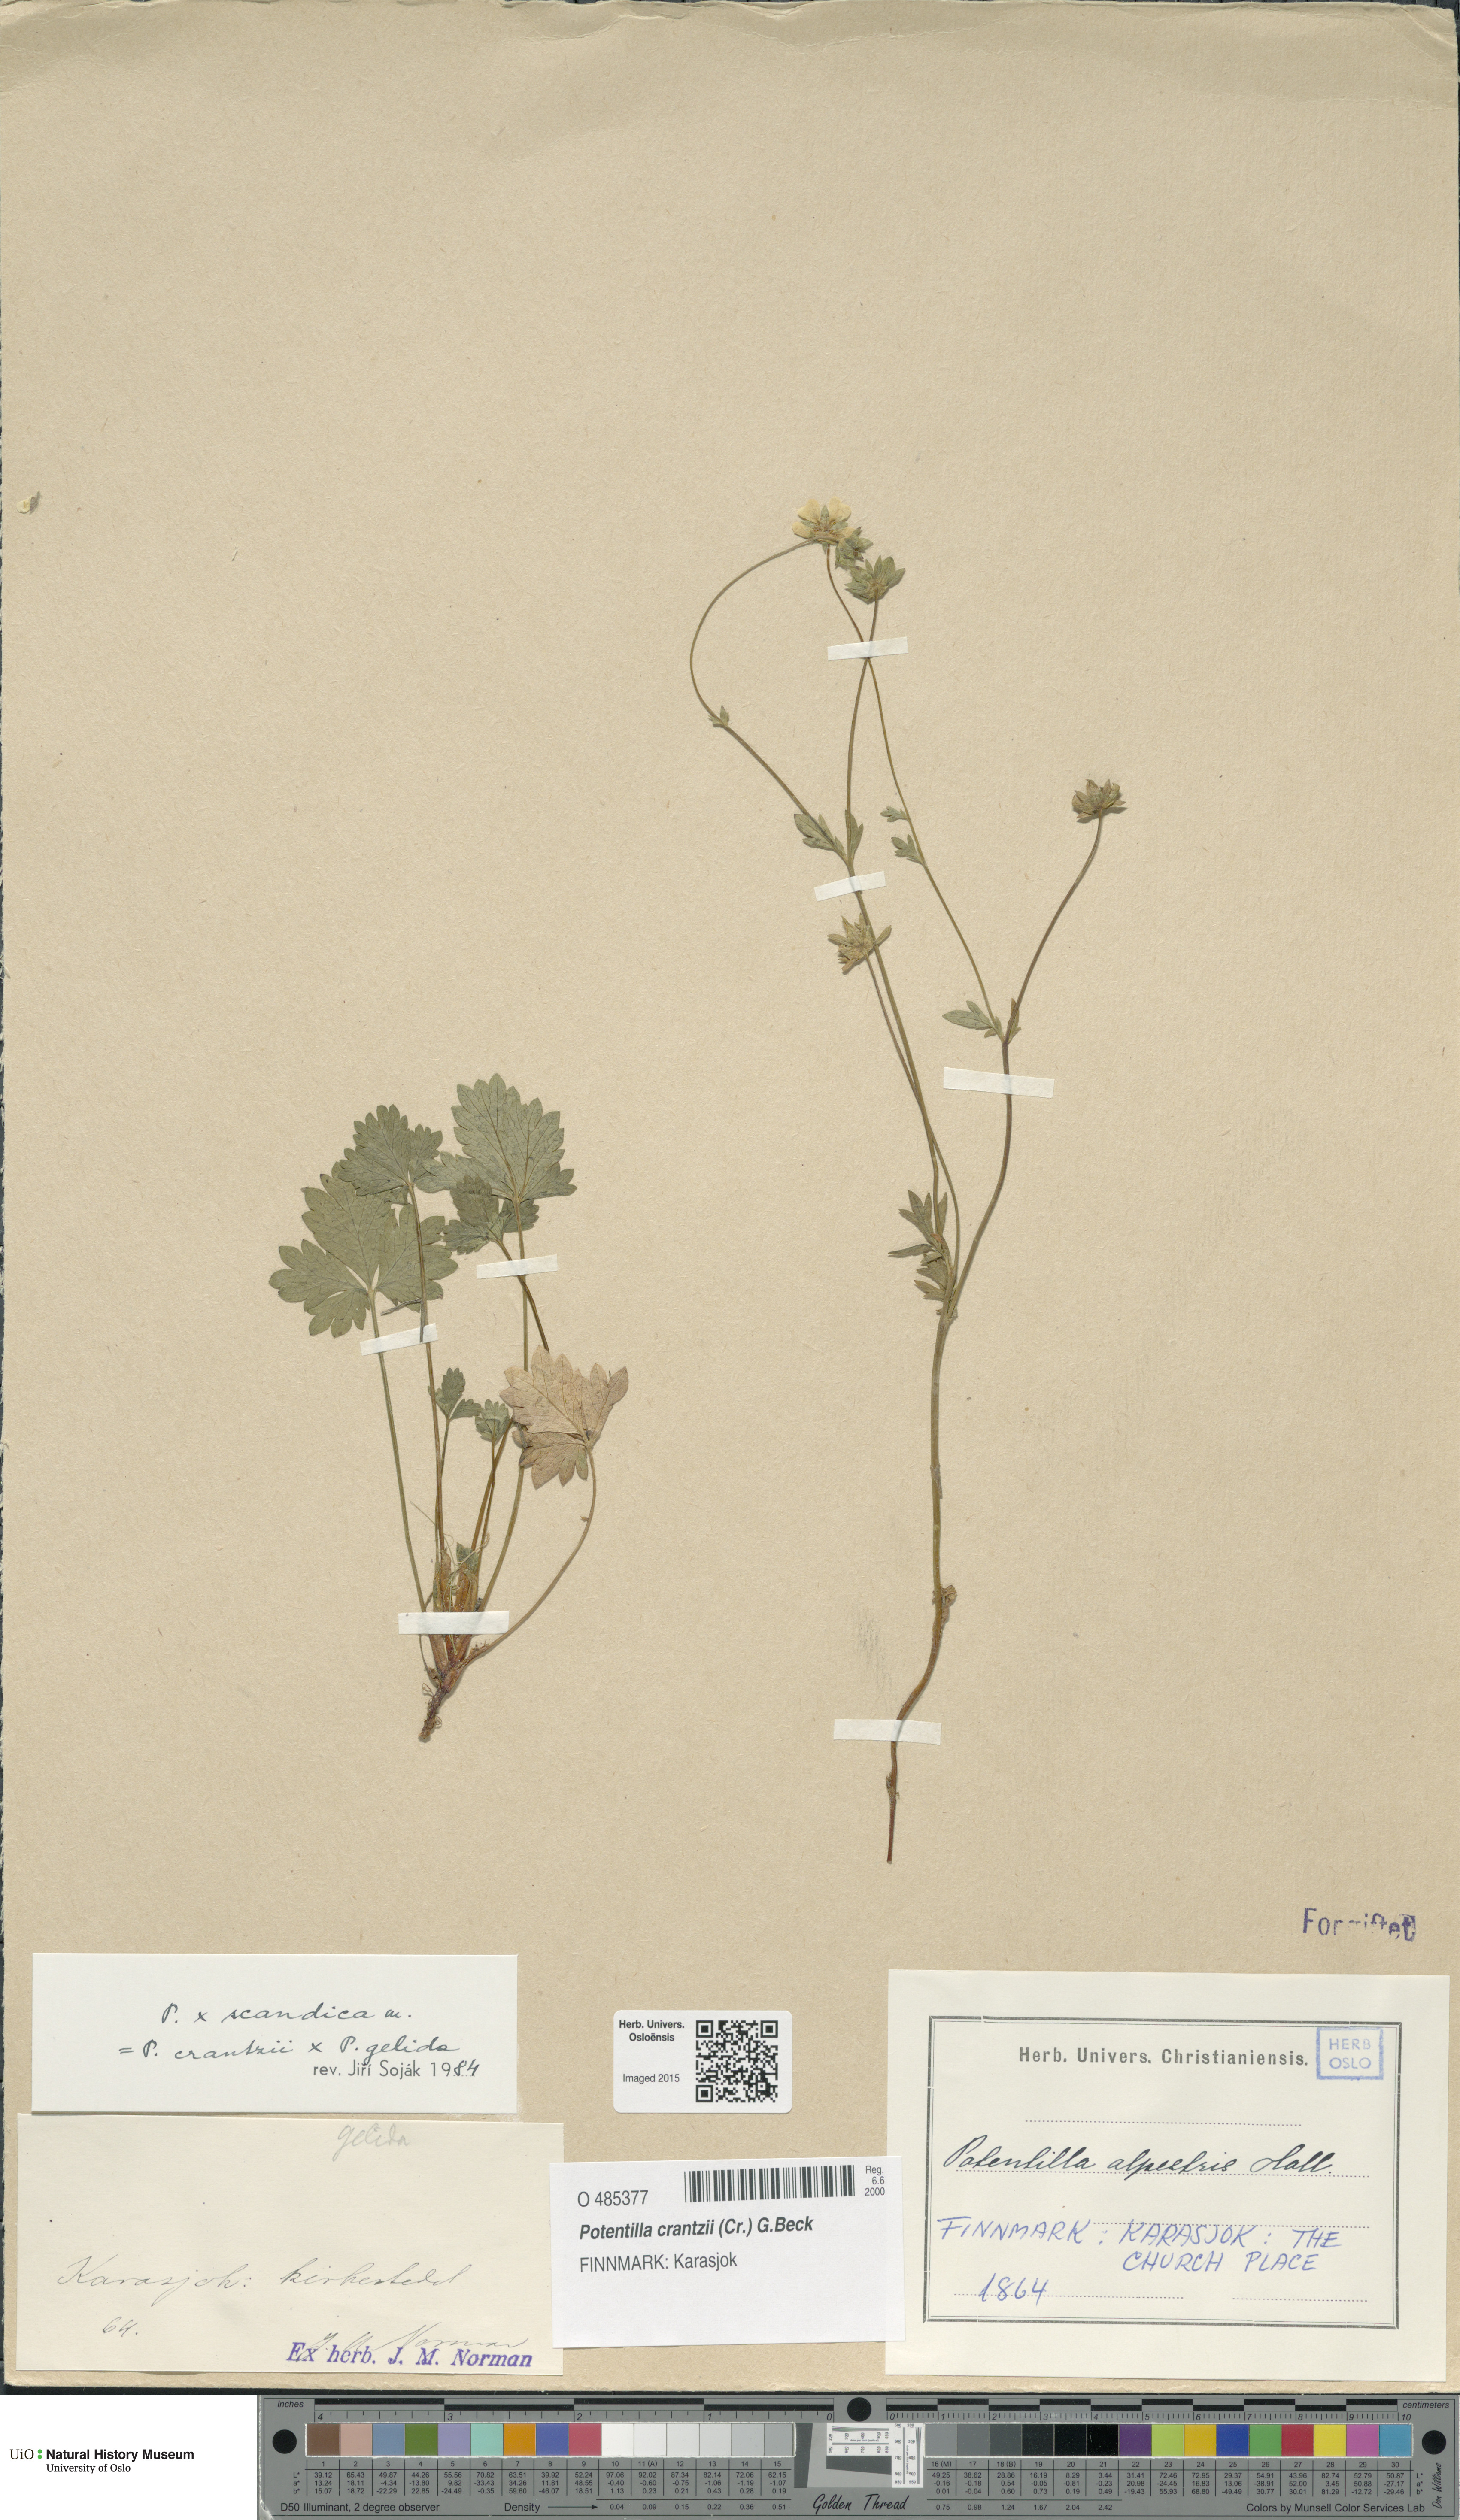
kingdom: Plantae
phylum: Tracheophyta
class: Magnoliopsida
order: Rosales
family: Rosaceae
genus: Potentilla
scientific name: Potentilla
